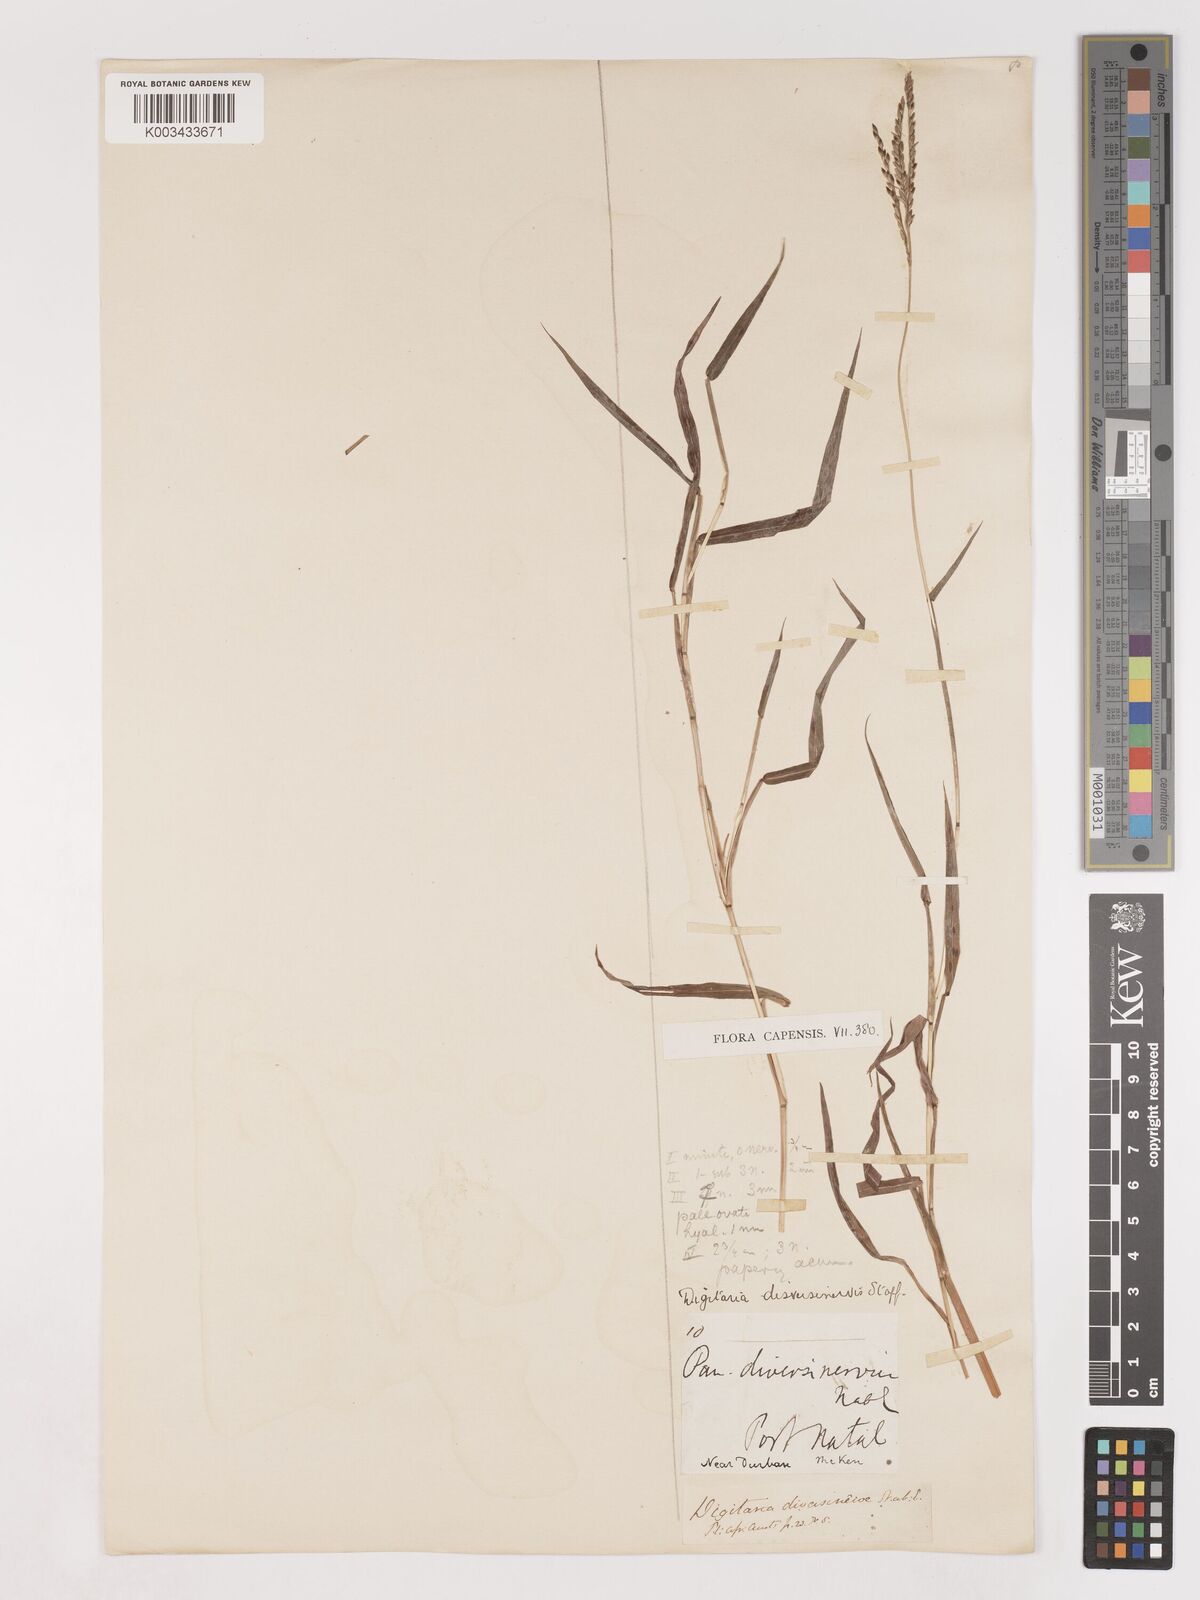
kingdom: Plantae
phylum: Tracheophyta
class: Liliopsida
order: Poales
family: Poaceae
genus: Digitaria
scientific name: Digitaria diversinervis
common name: Richmond finger grass
